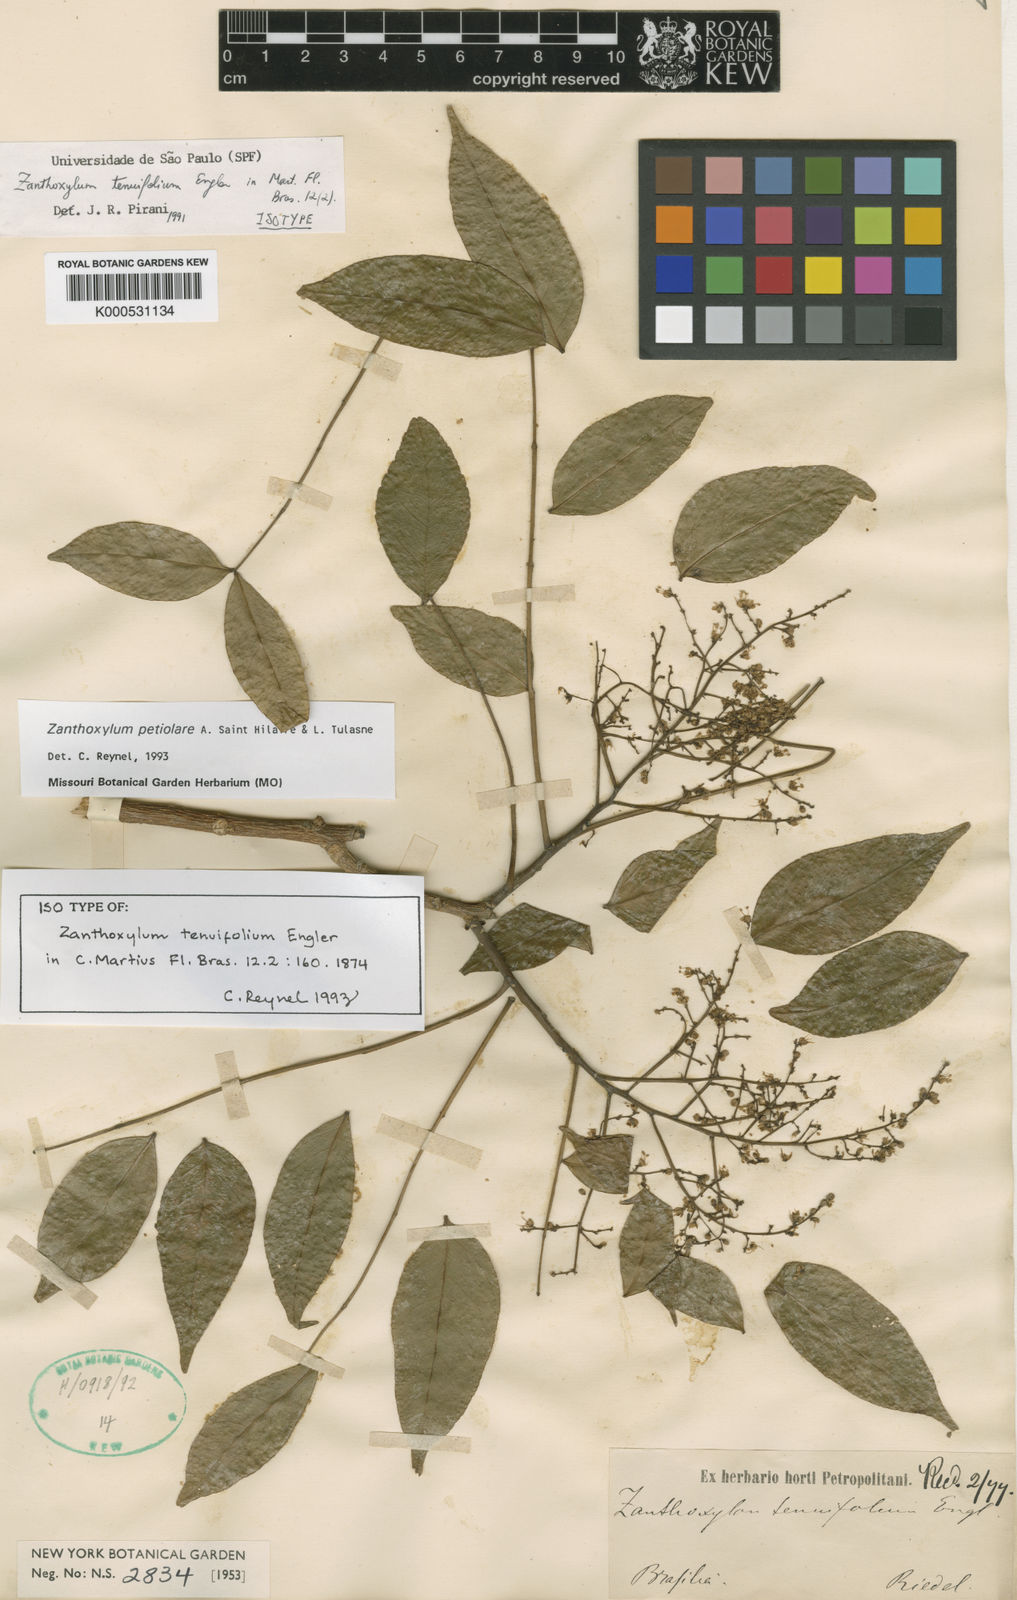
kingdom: Plantae
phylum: Tracheophyta
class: Magnoliopsida
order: Sapindales
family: Rutaceae
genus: Zanthoxylum
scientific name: Zanthoxylum petiolare
